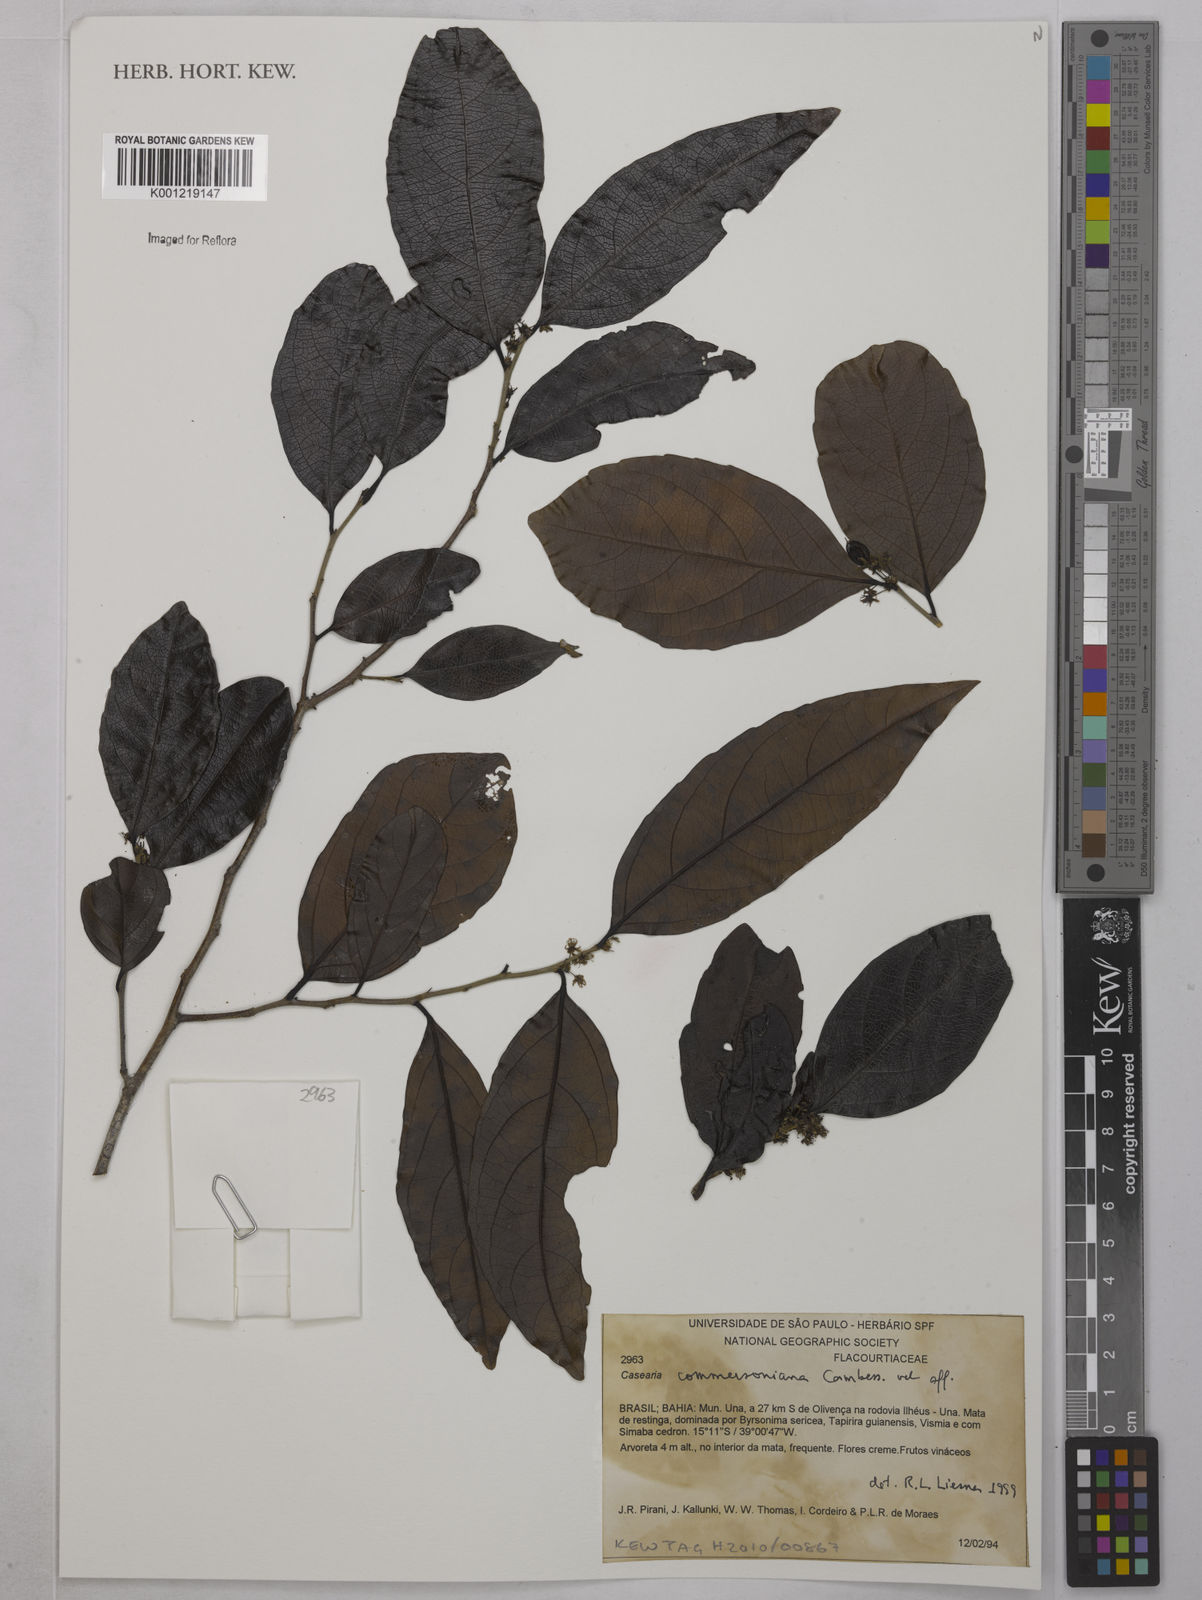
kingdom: Plantae
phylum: Tracheophyta
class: Magnoliopsida
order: Malpighiales
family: Salicaceae
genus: Piparea
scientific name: Piparea dentata
